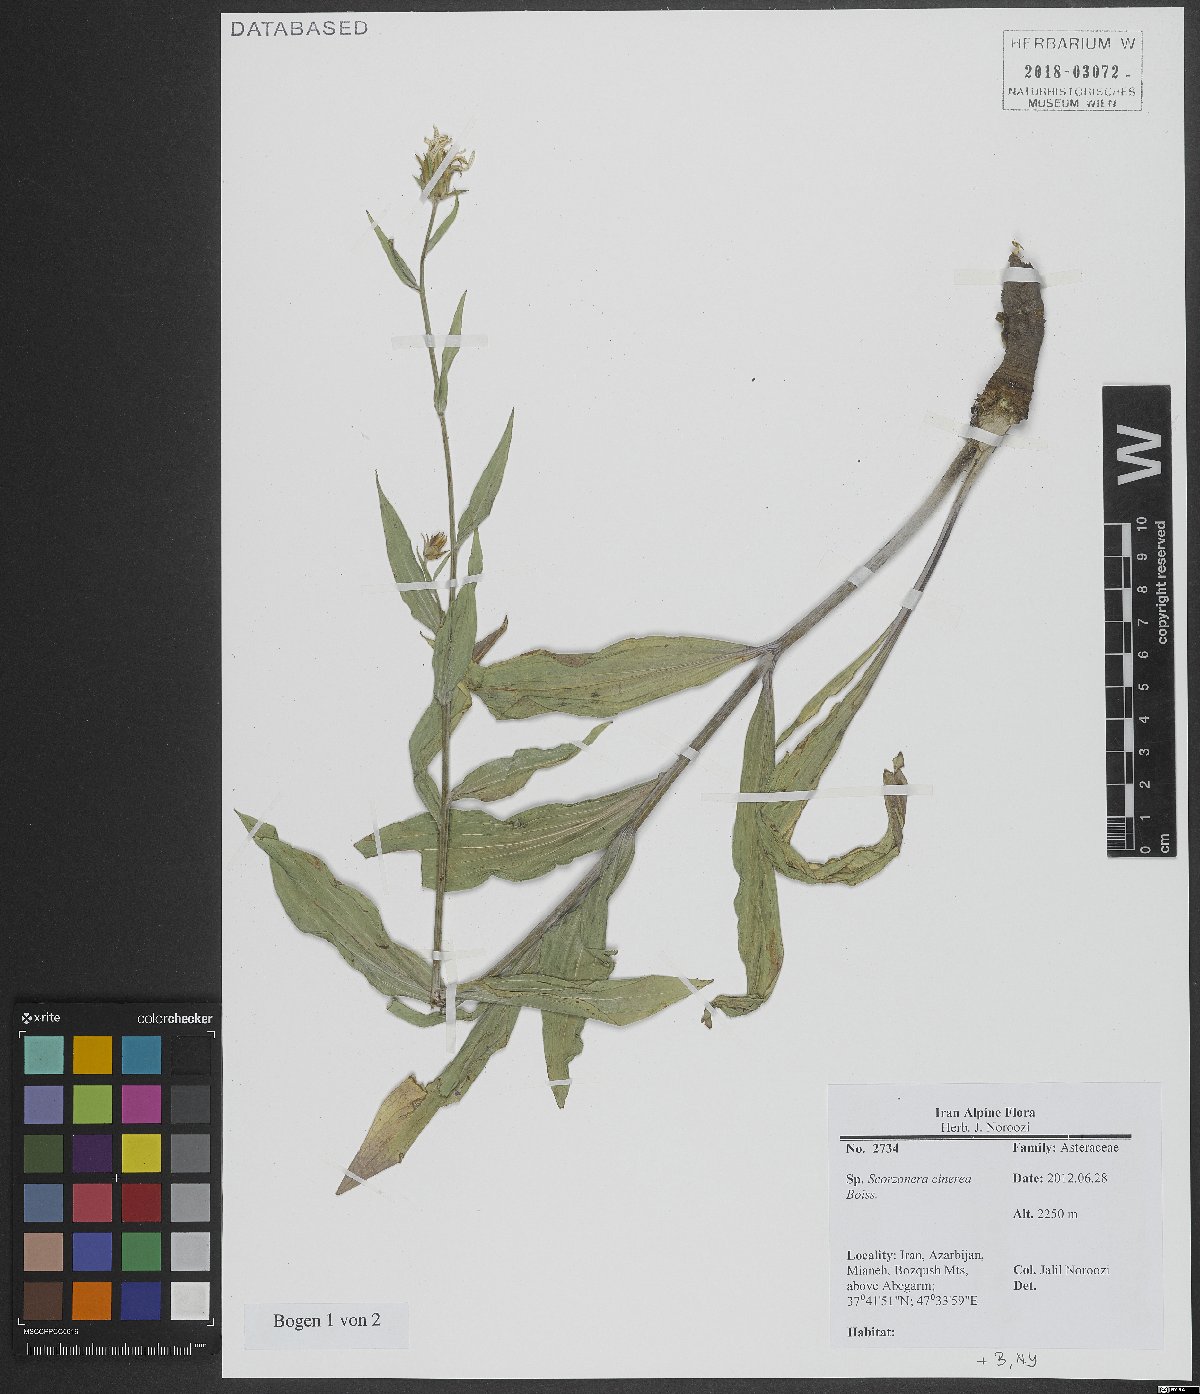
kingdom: Plantae
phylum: Tracheophyta
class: Magnoliopsida
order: Asterales
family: Asteraceae
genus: Cigdemia
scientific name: Cigdemia cinerea
